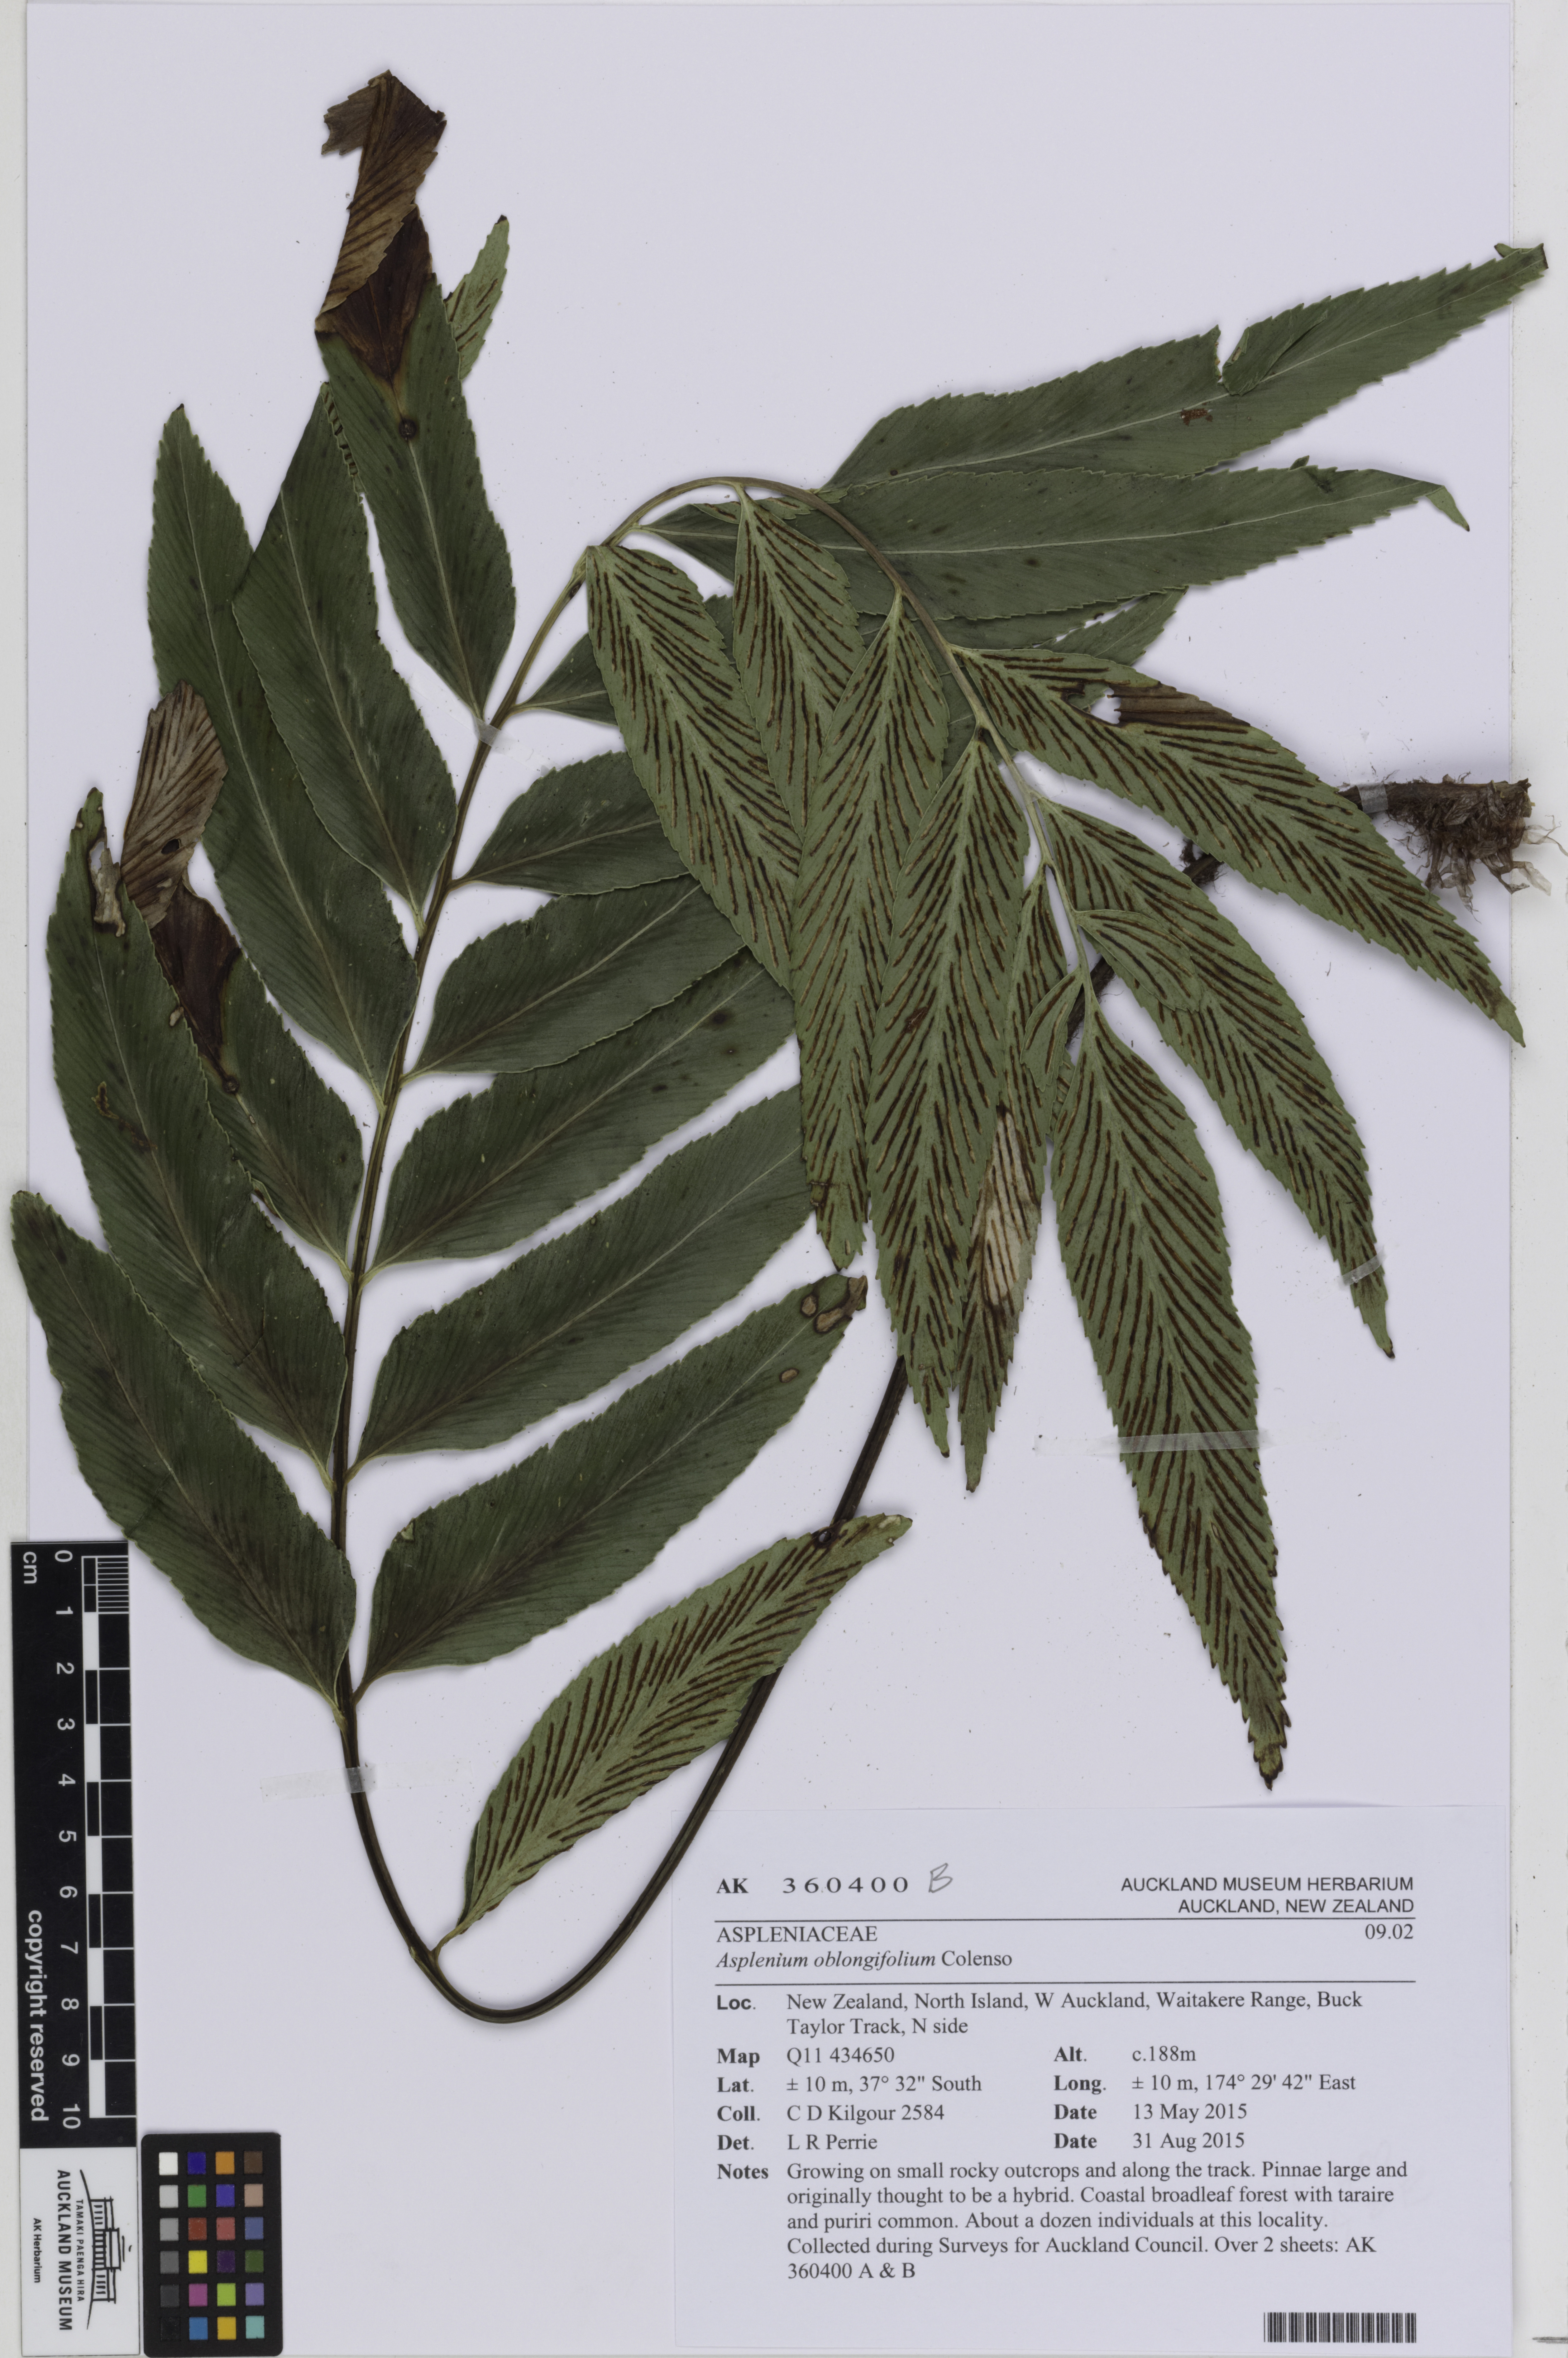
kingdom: Plantae
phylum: Tracheophyta
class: Polypodiopsida
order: Polypodiales
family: Aspleniaceae
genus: Asplenium
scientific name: Asplenium oblongifolium
